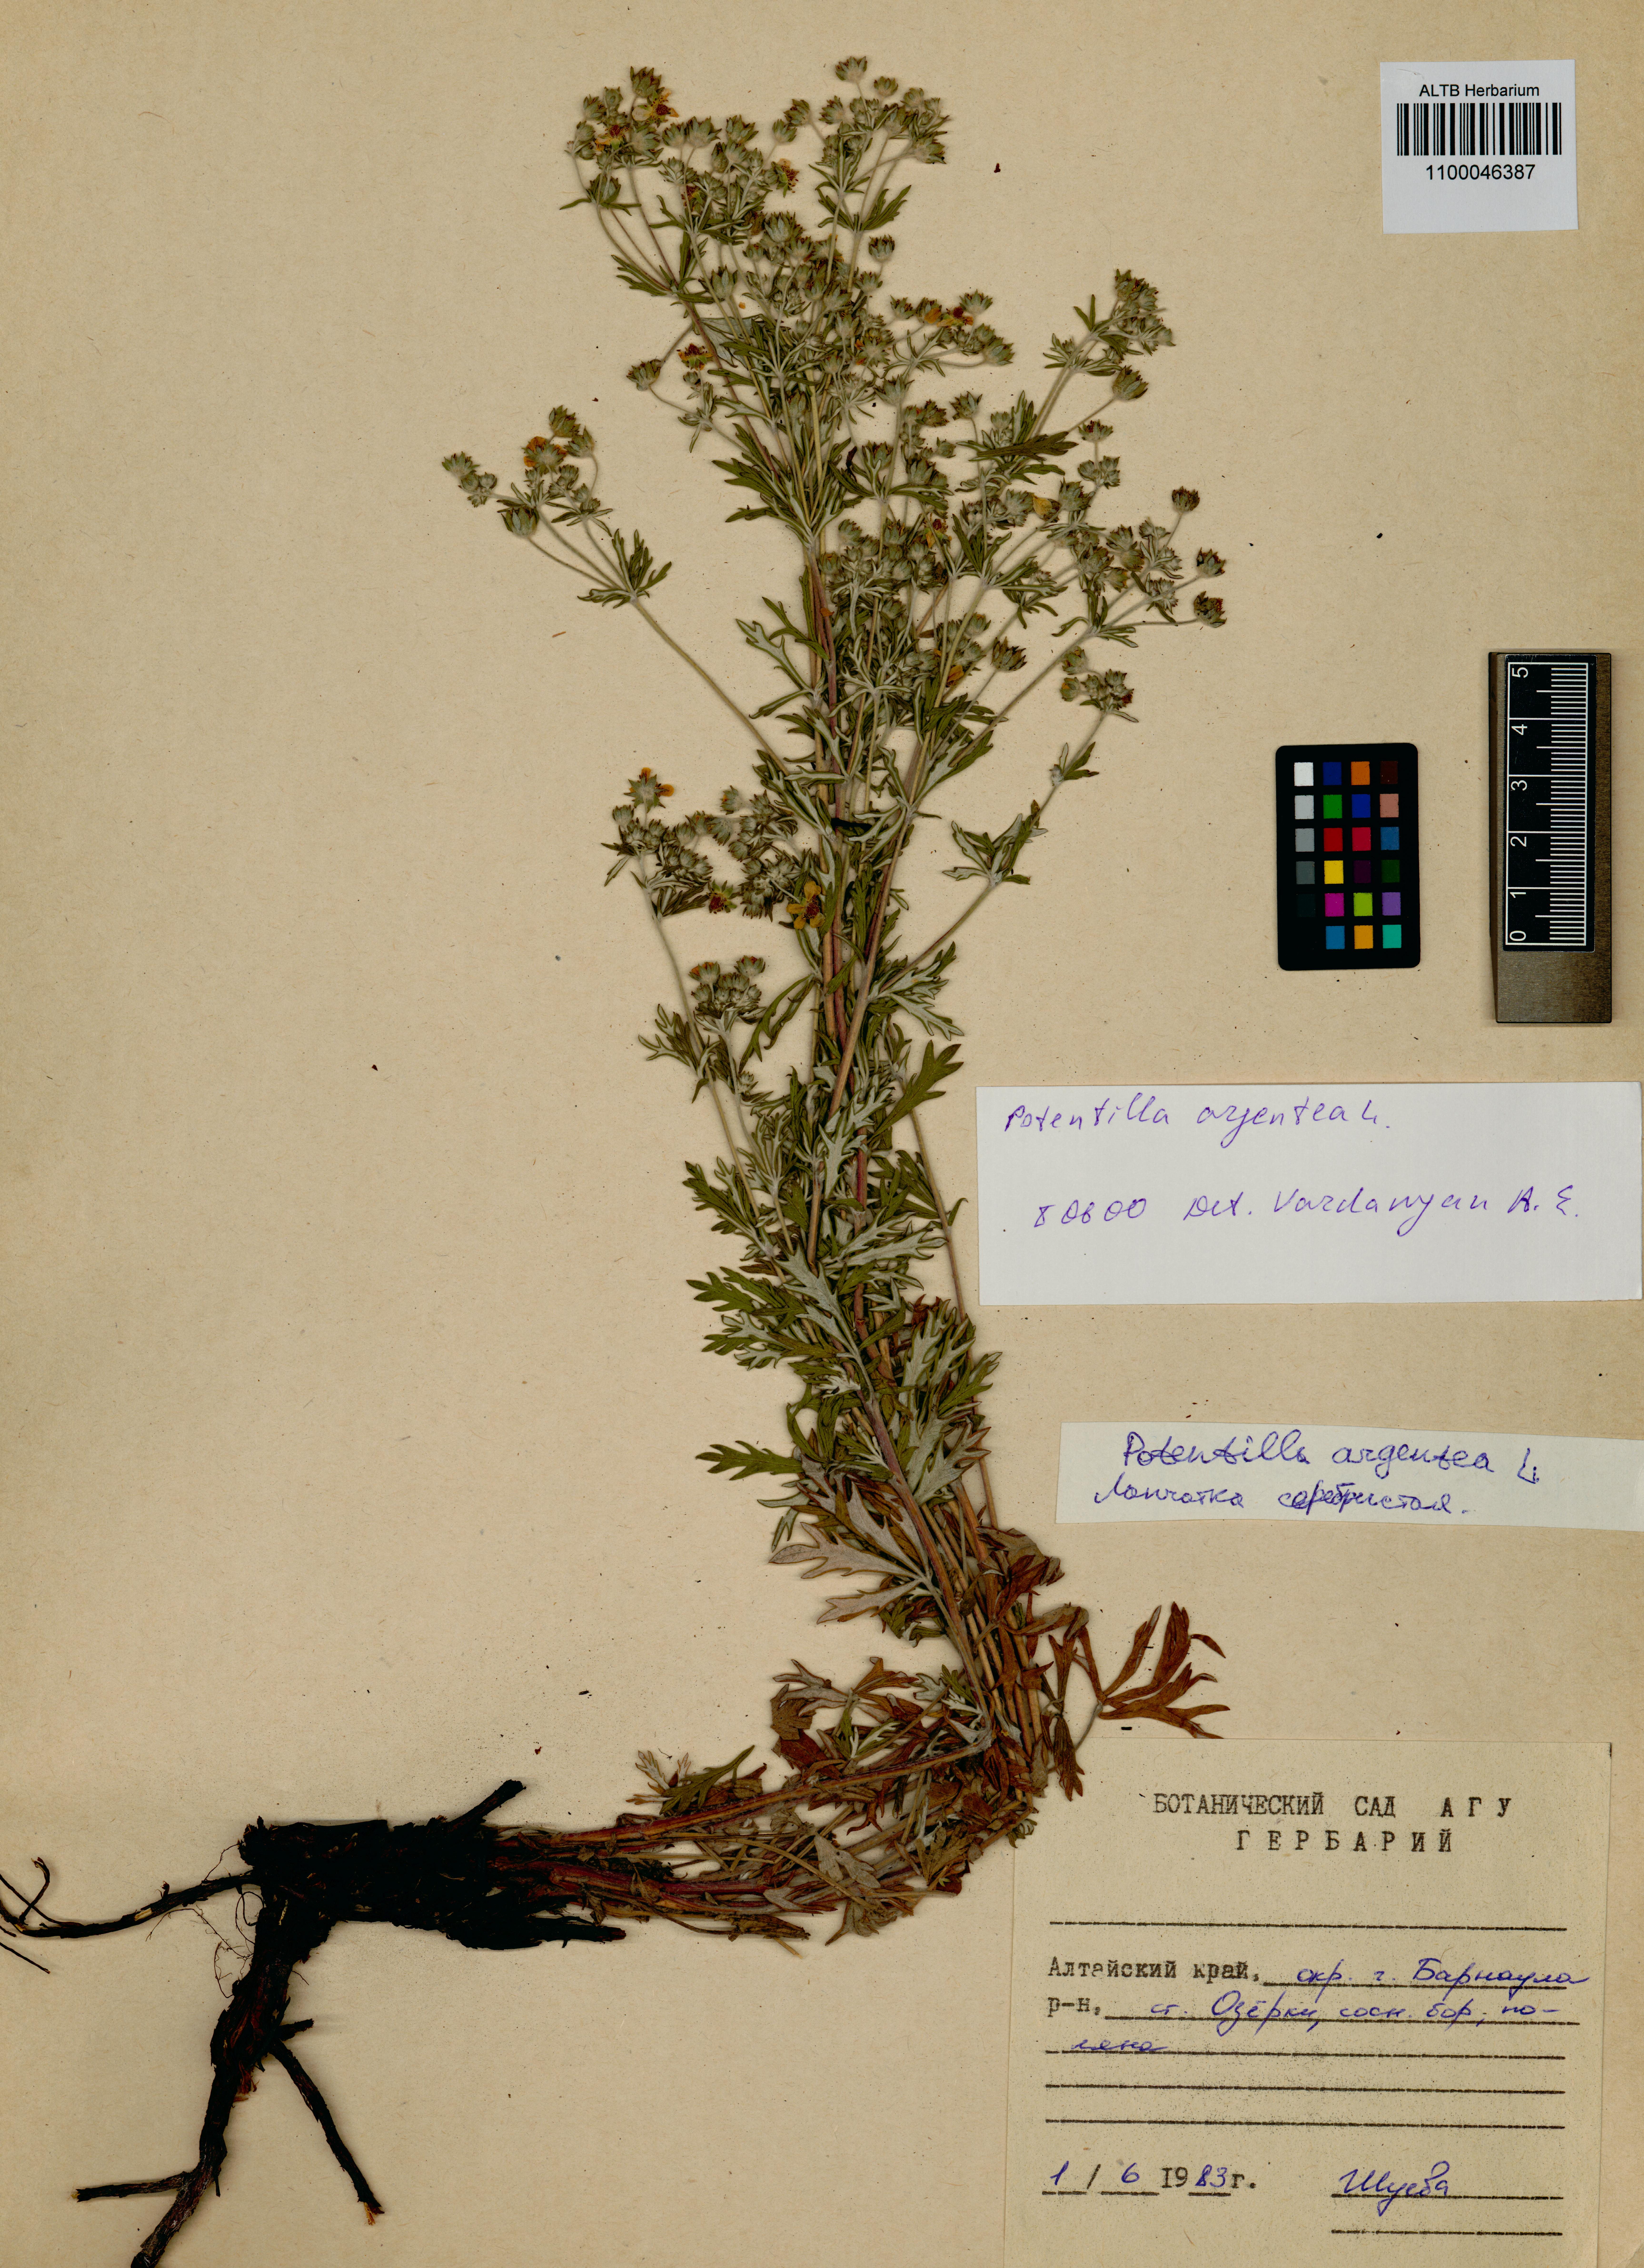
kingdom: Plantae
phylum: Tracheophyta
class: Magnoliopsida
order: Rosales
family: Rosaceae
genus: Potentilla
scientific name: Potentilla argentea
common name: Hoary cinquefoil
